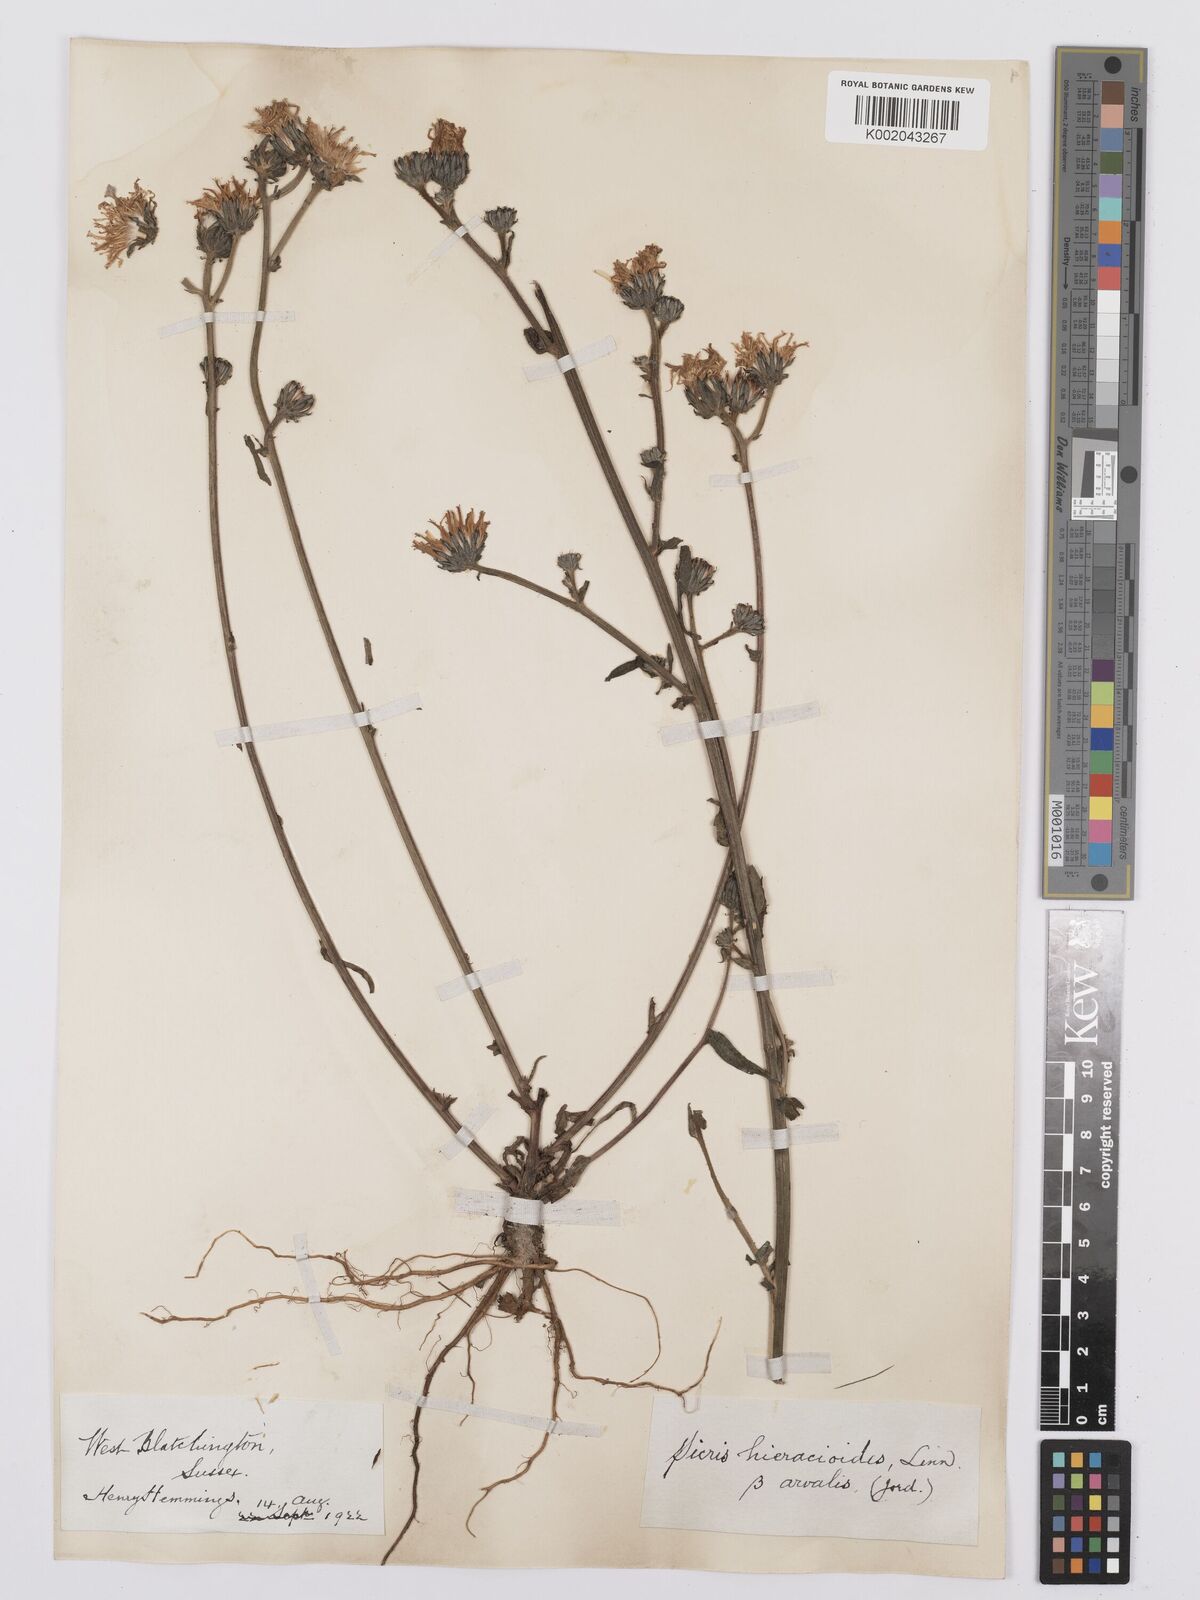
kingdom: Plantae
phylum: Tracheophyta
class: Magnoliopsida
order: Asterales
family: Asteraceae
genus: Picris
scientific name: Picris hieracioides
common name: Hawkweed oxtongue
